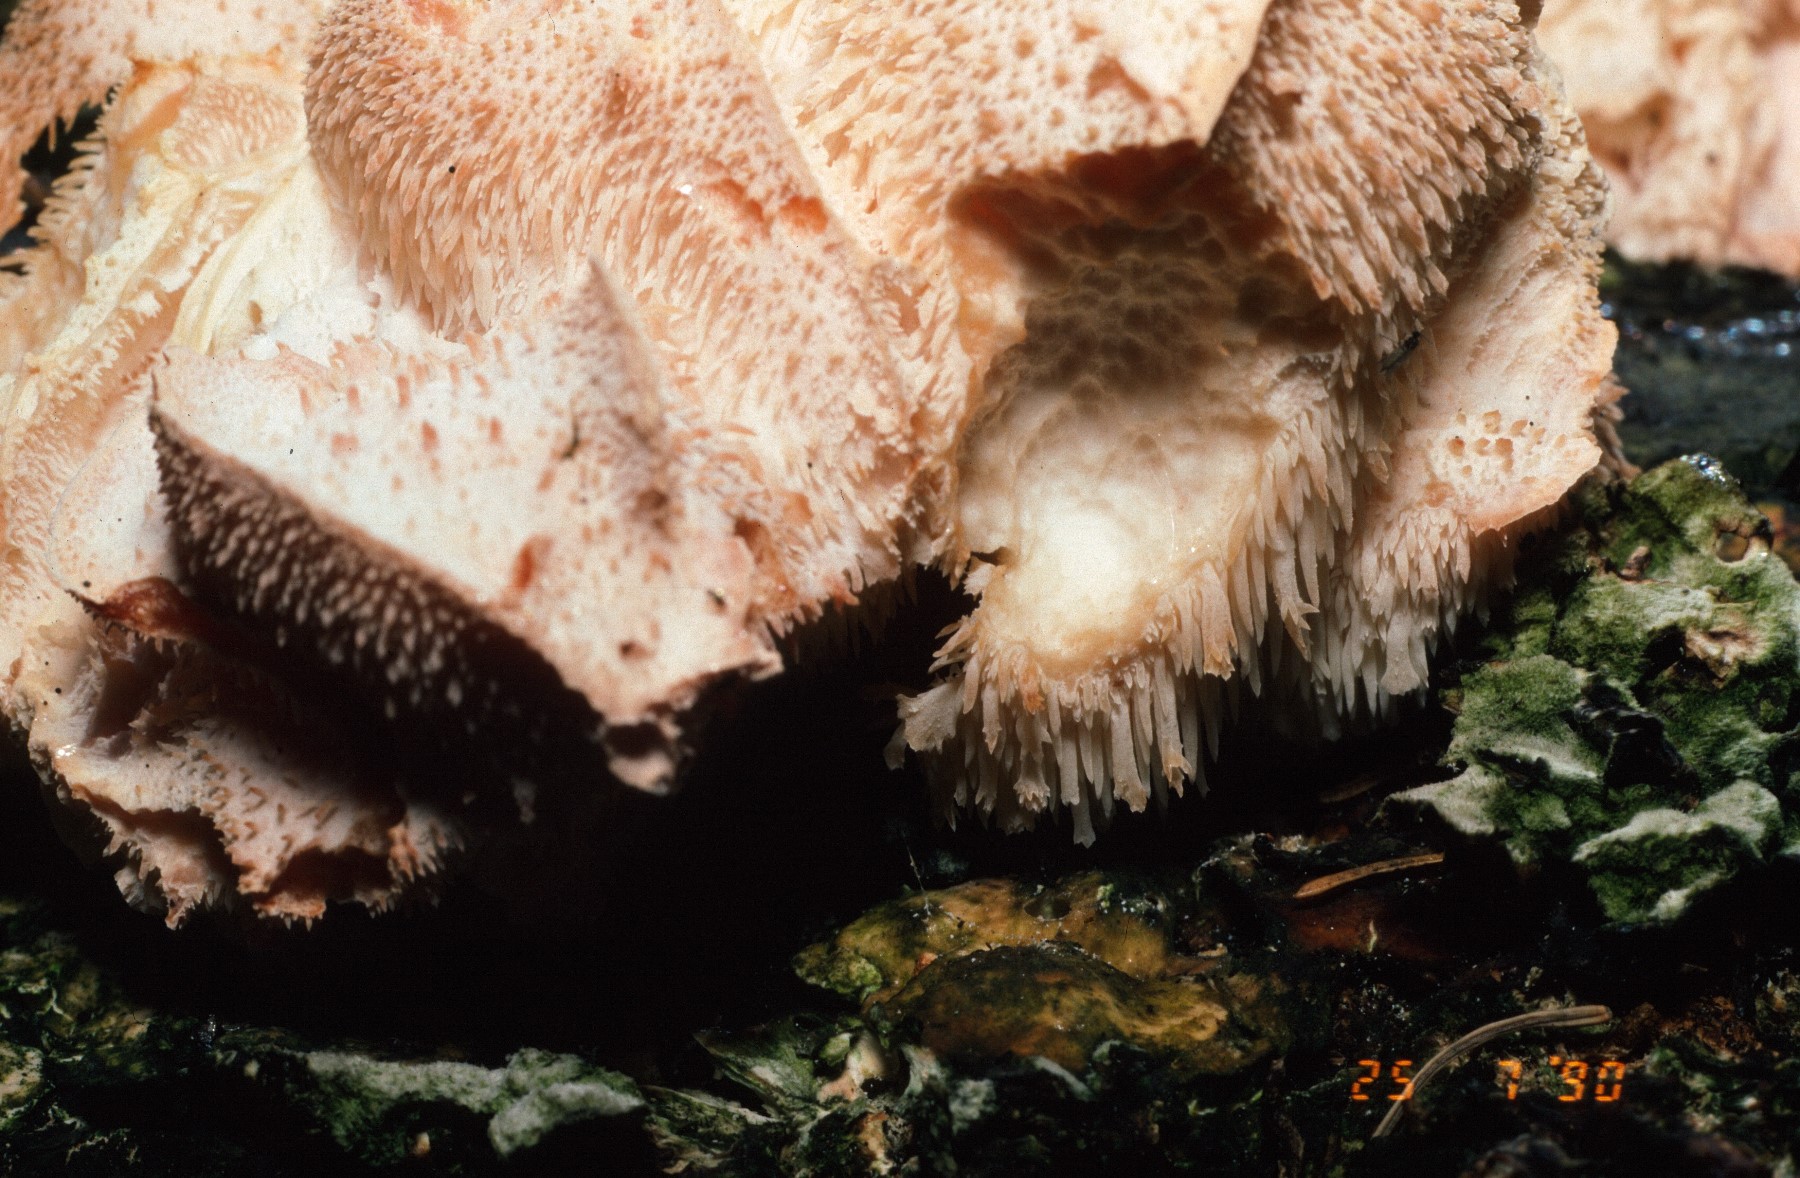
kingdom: Fungi
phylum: Basidiomycota
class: Agaricomycetes
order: Russulales
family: Hericiaceae
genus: Hericium
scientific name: Hericium cirrhatum
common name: børstepigsvamp
